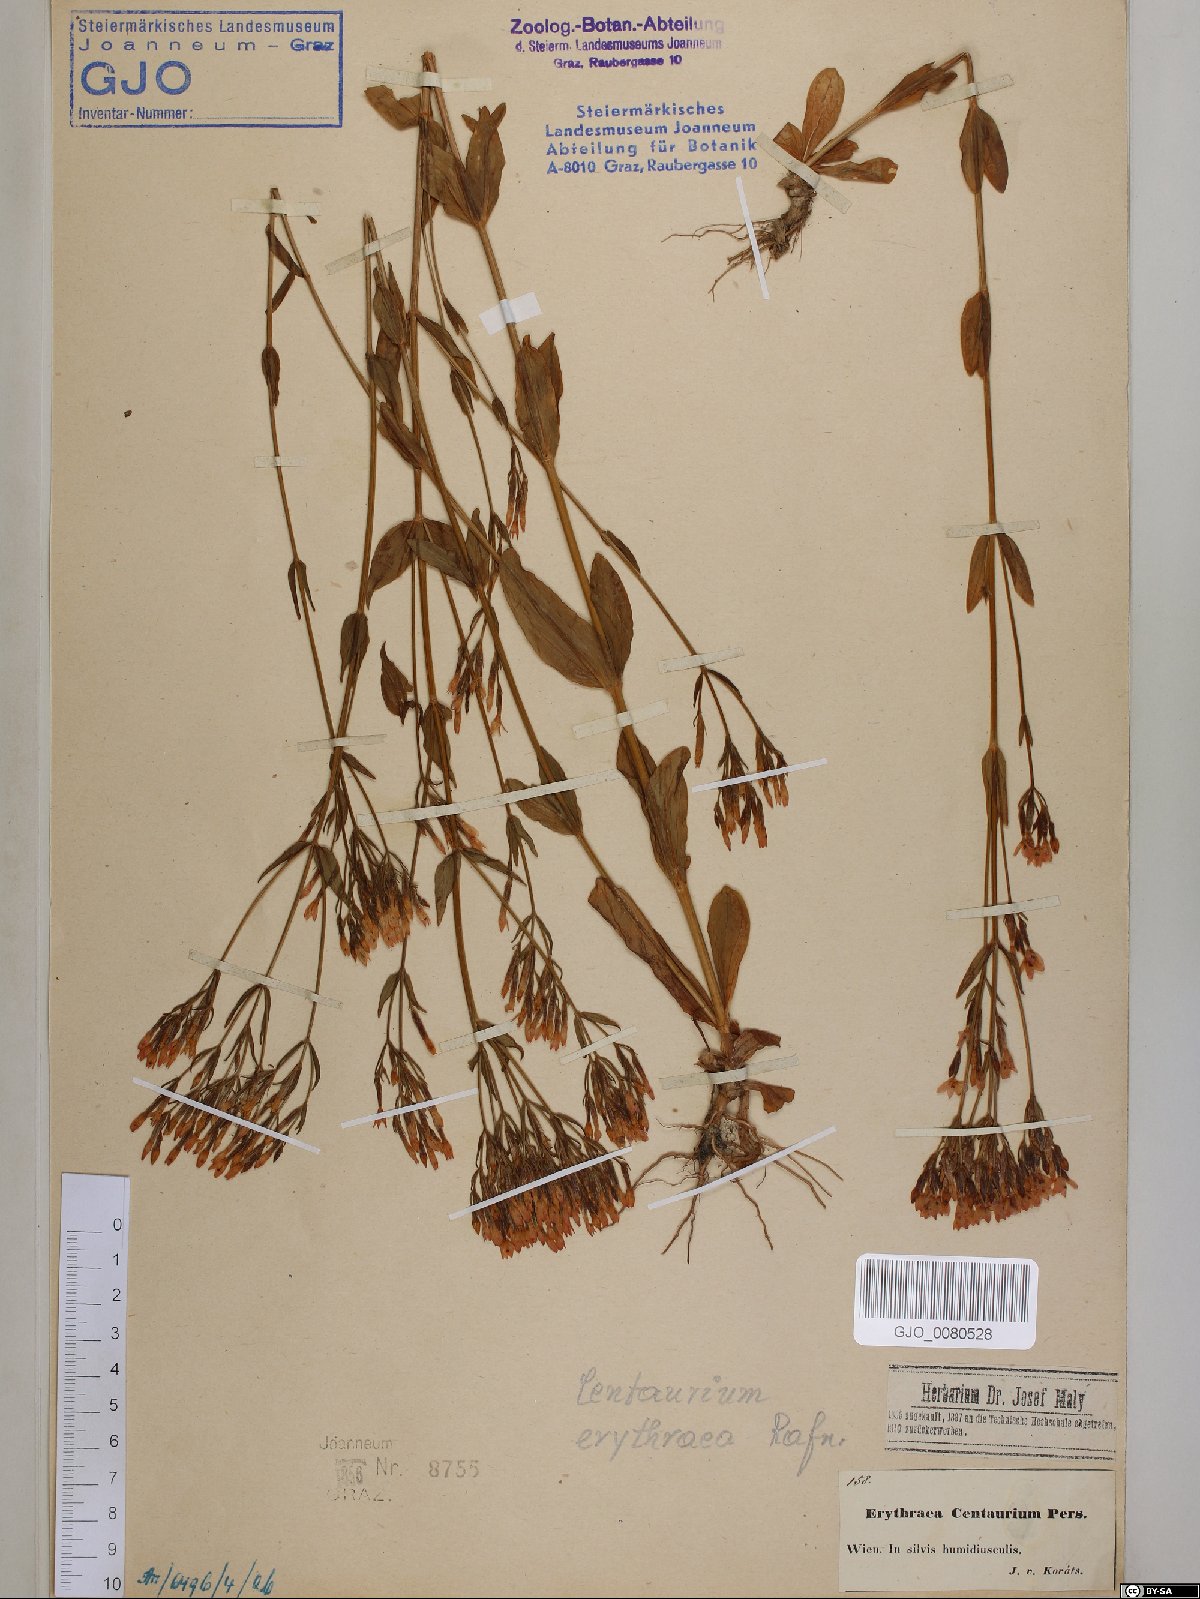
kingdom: Plantae
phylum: Tracheophyta
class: Magnoliopsida
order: Gentianales
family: Gentianaceae
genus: Centaurium
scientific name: Centaurium erythraea
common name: Common centaury
